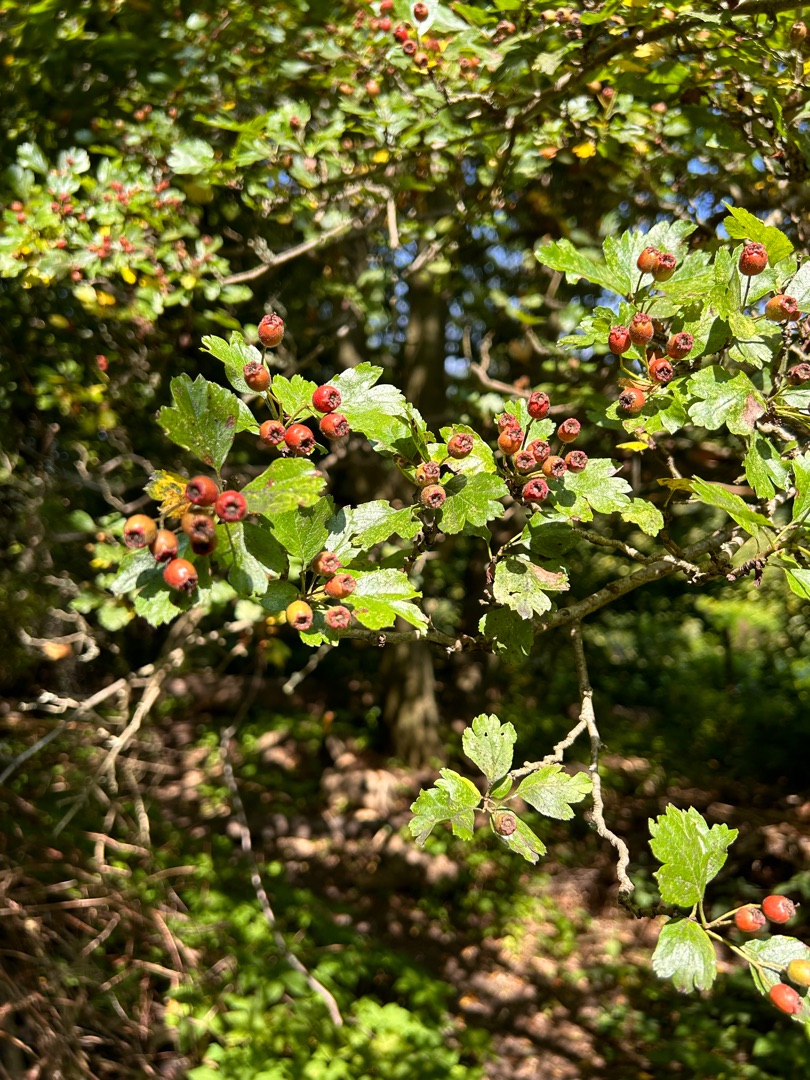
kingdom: Plantae
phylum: Tracheophyta
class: Magnoliopsida
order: Rosales
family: Rosaceae
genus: Crataegus
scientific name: Crataegus media
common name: Almindelig hvidtjørn × engriflet hvidtjørn
